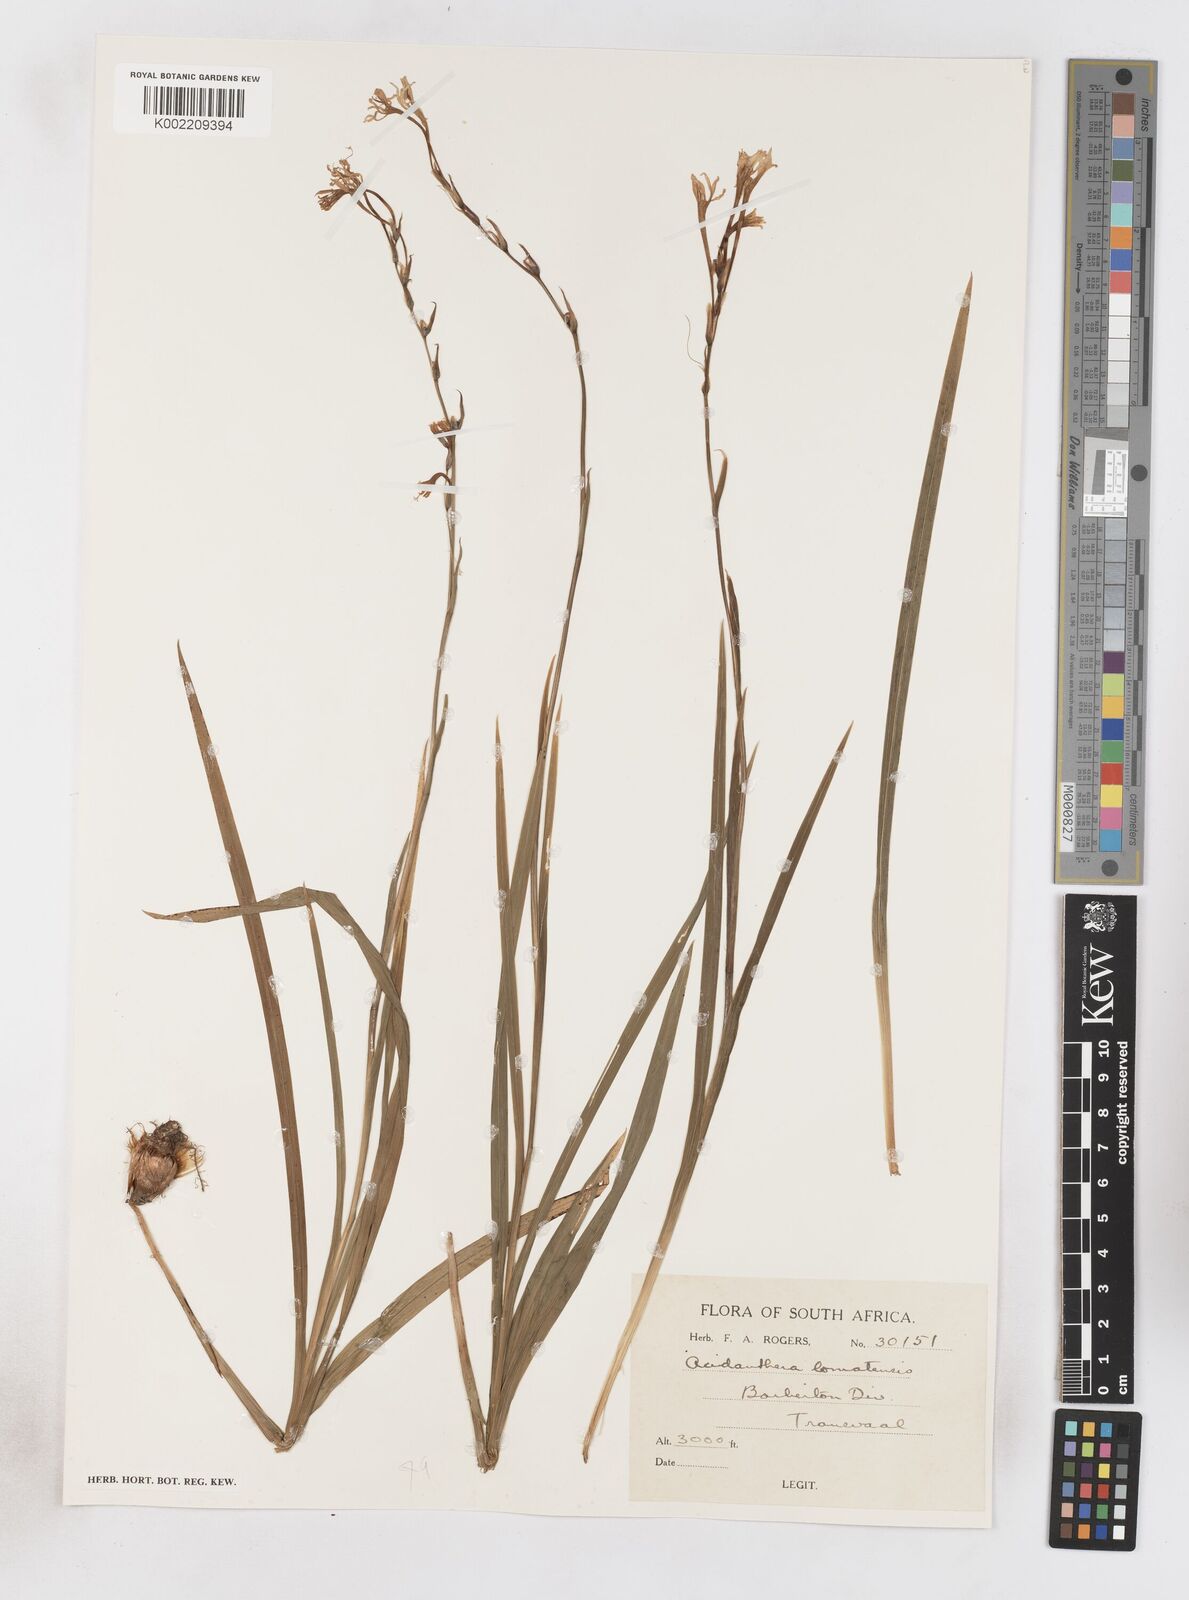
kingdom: Plantae
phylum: Tracheophyta
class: Liliopsida
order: Asparagales
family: Iridaceae
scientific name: Iridaceae
